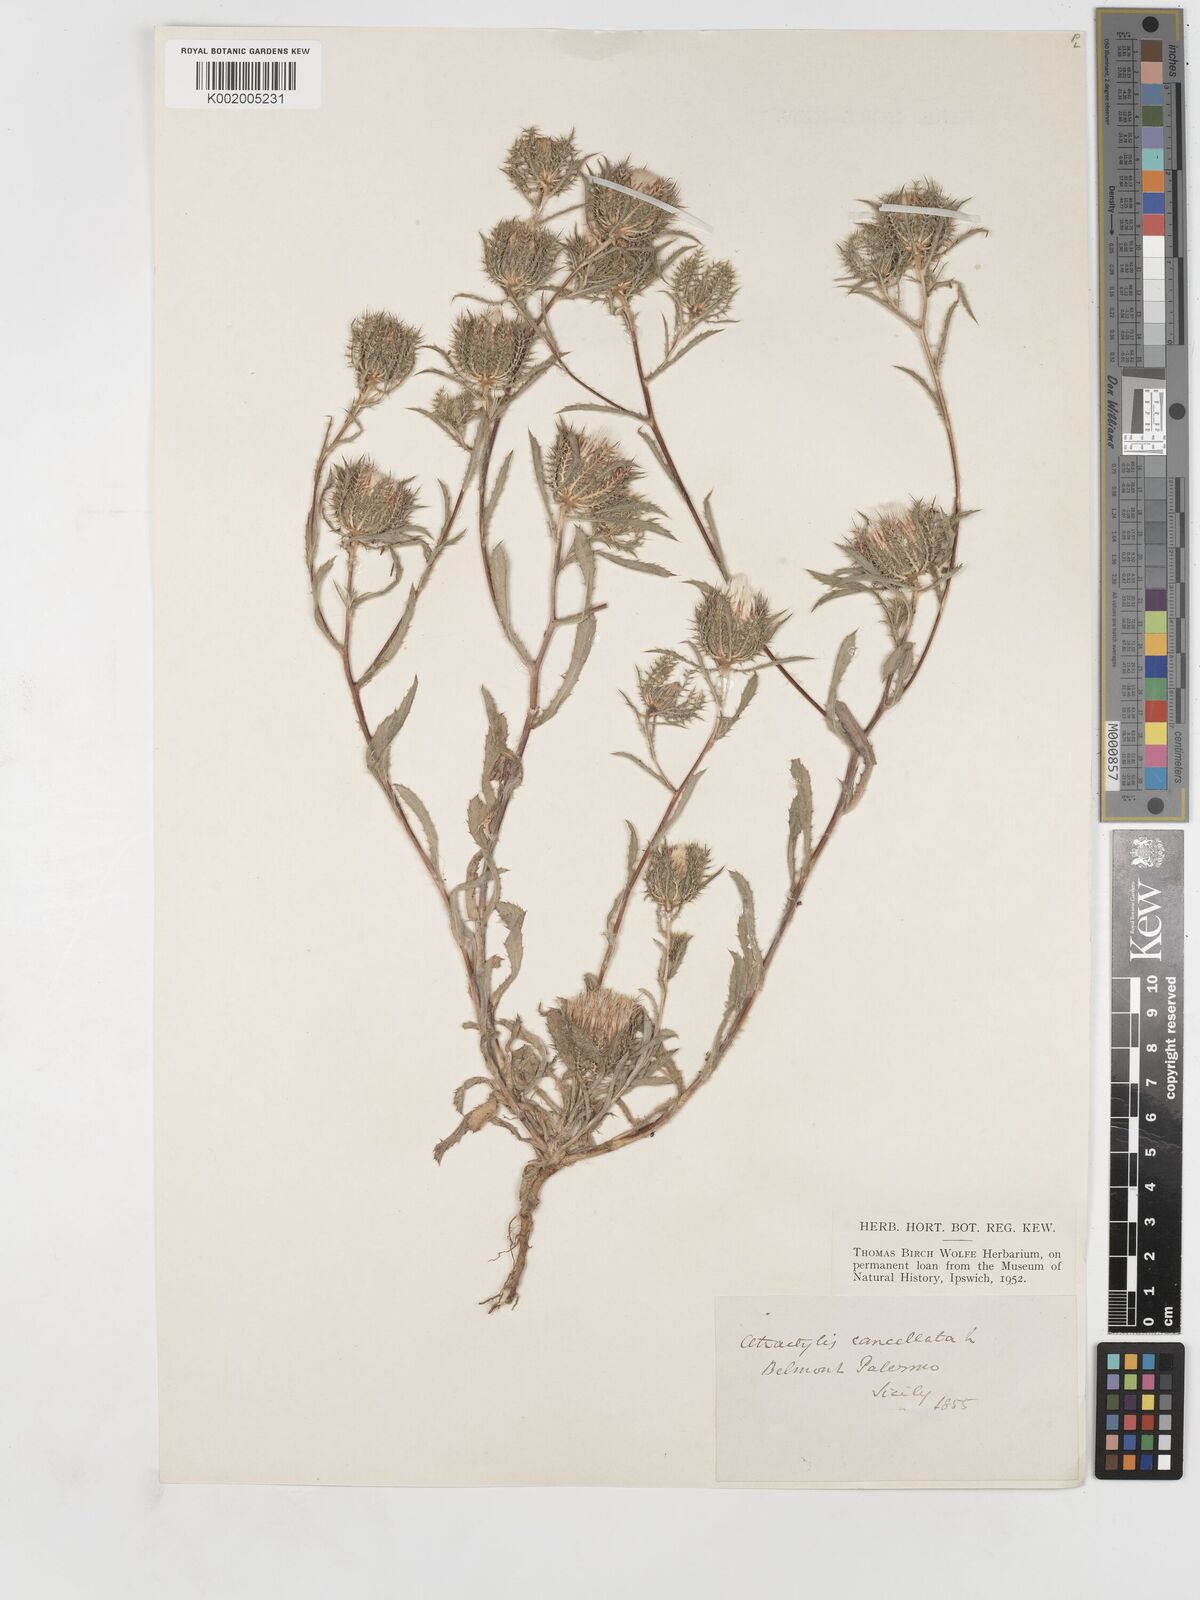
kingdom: Plantae
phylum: Tracheophyta
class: Magnoliopsida
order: Asterales
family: Asteraceae
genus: Atractylis
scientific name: Atractylis cancellata
